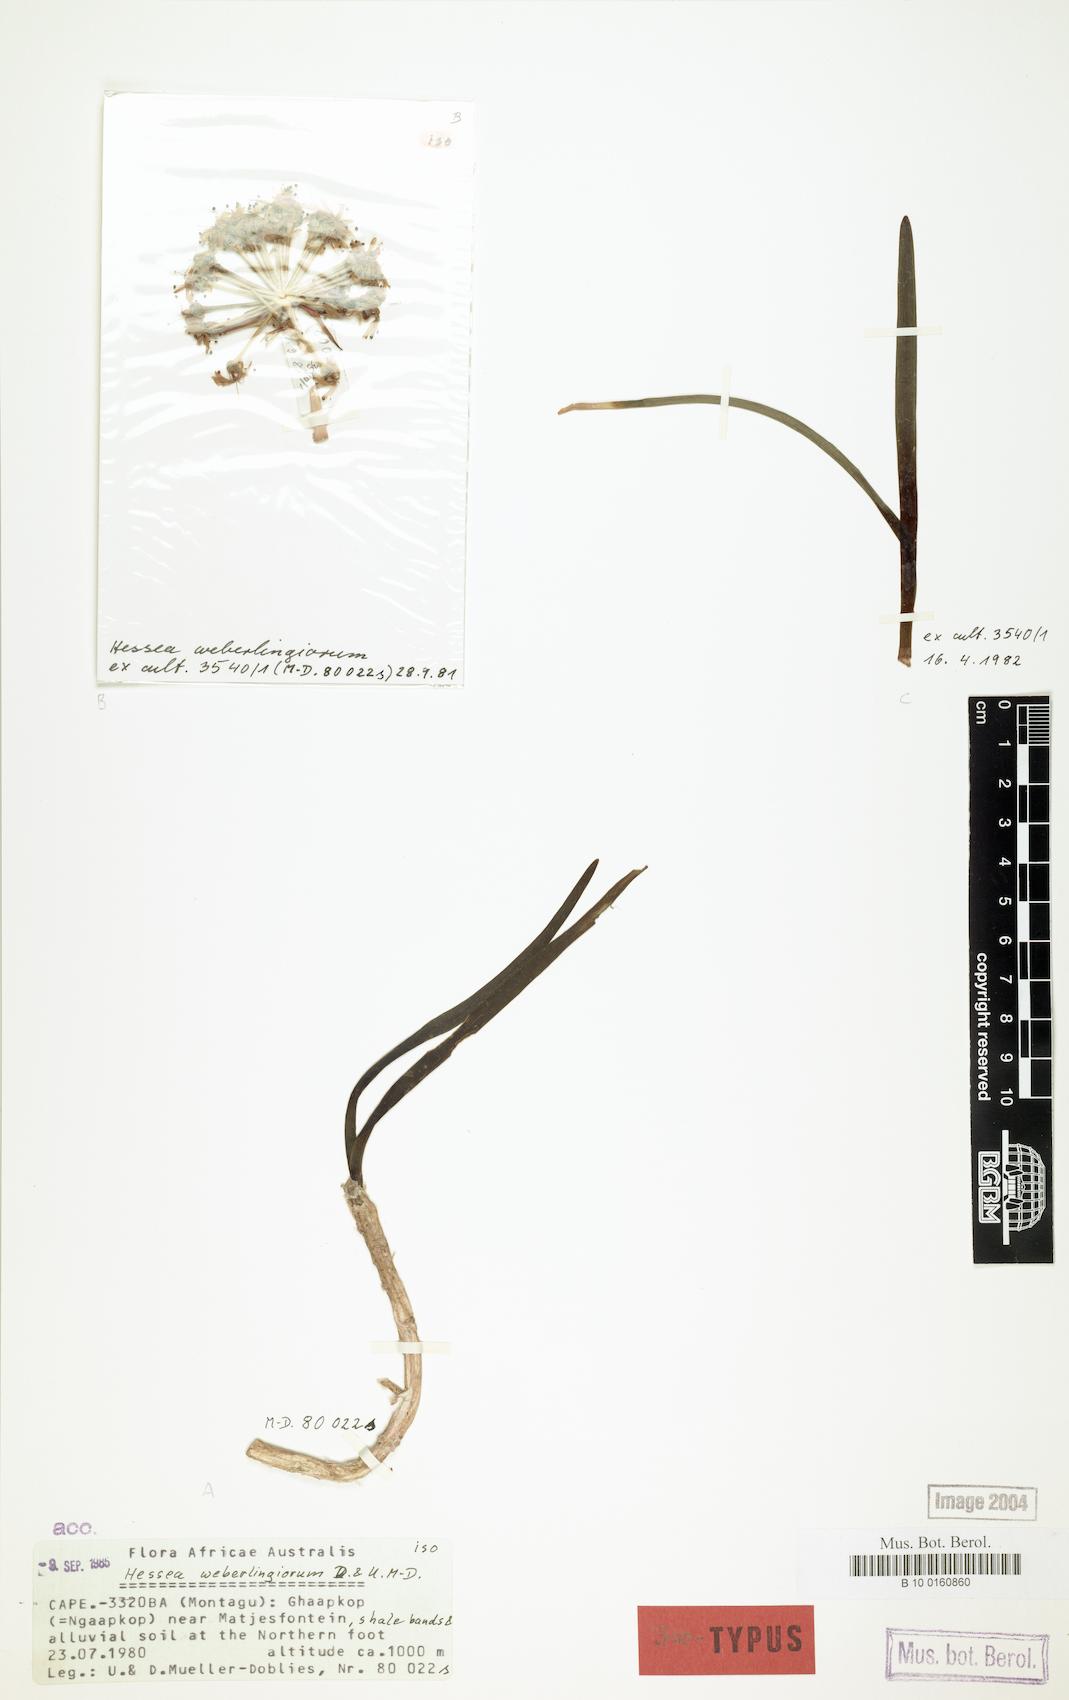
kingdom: Plantae
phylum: Tracheophyta
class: Liliopsida
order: Asparagales
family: Amaryllidaceae
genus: Hessea
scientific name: Hessea stellaris
